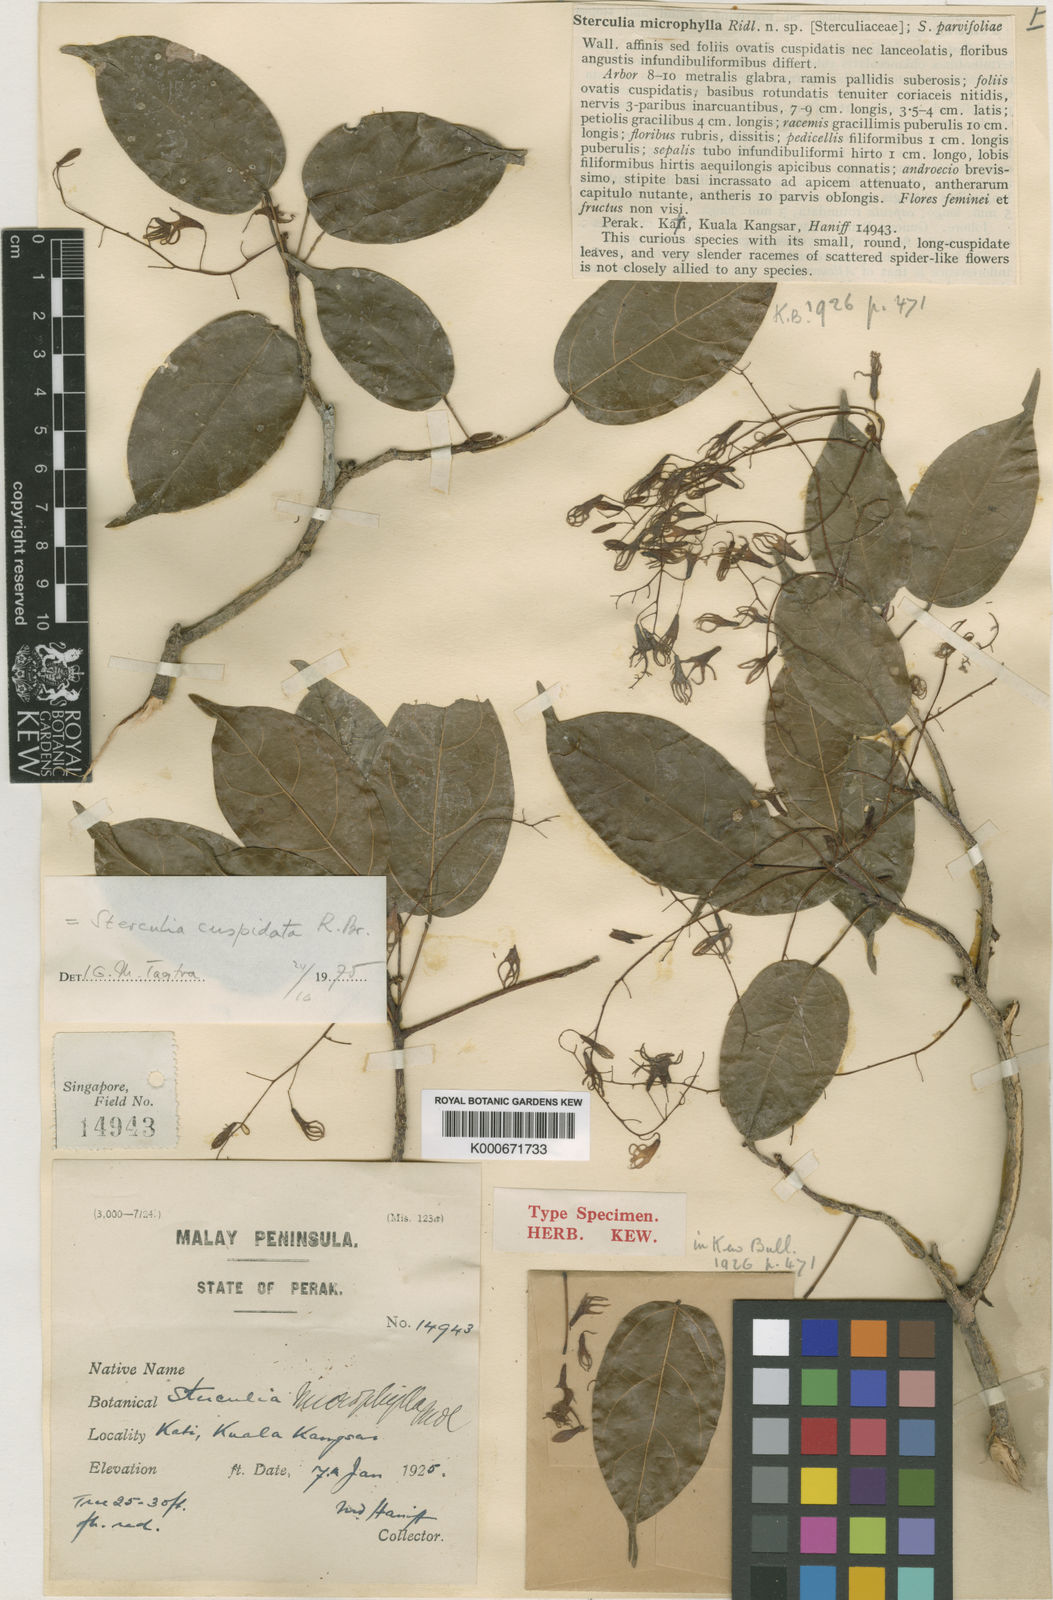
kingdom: Plantae
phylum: Tracheophyta
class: Magnoliopsida
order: Malvales
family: Malvaceae
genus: Sterculia
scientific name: Sterculia cuspidata
